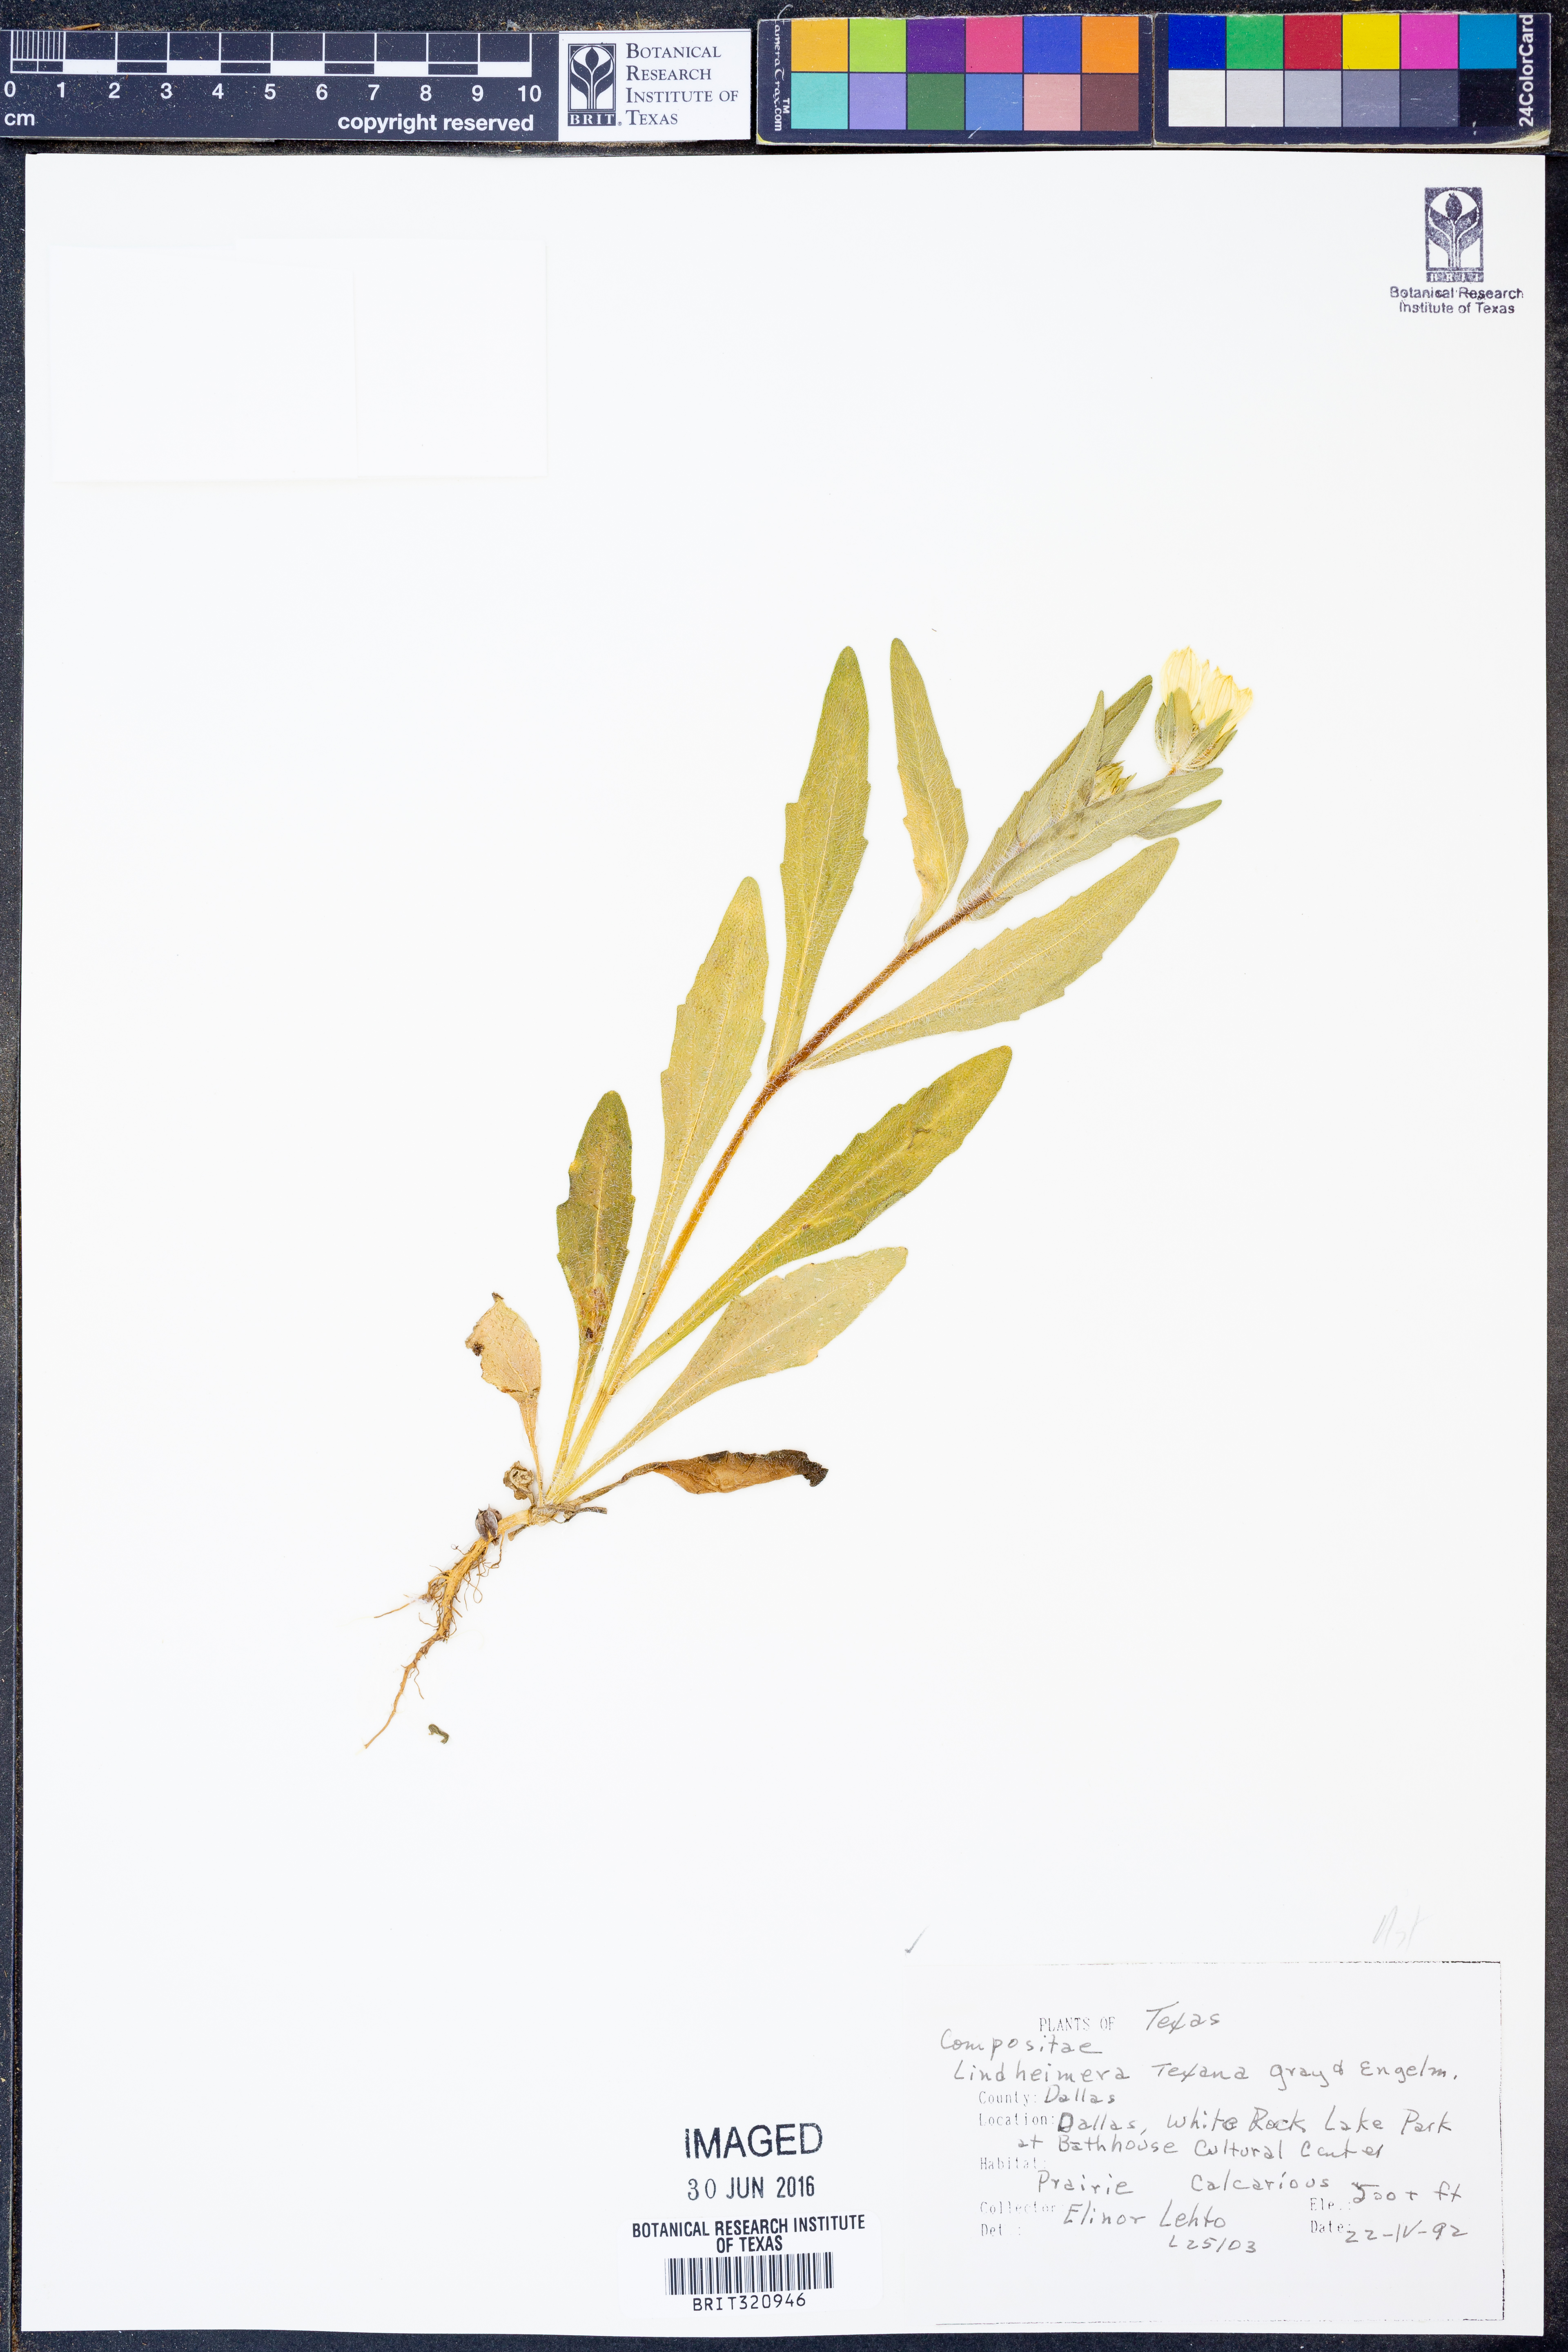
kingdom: Plantae
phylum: Tracheophyta
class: Magnoliopsida
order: Asterales
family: Asteraceae
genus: Lindheimera
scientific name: Lindheimera texana
